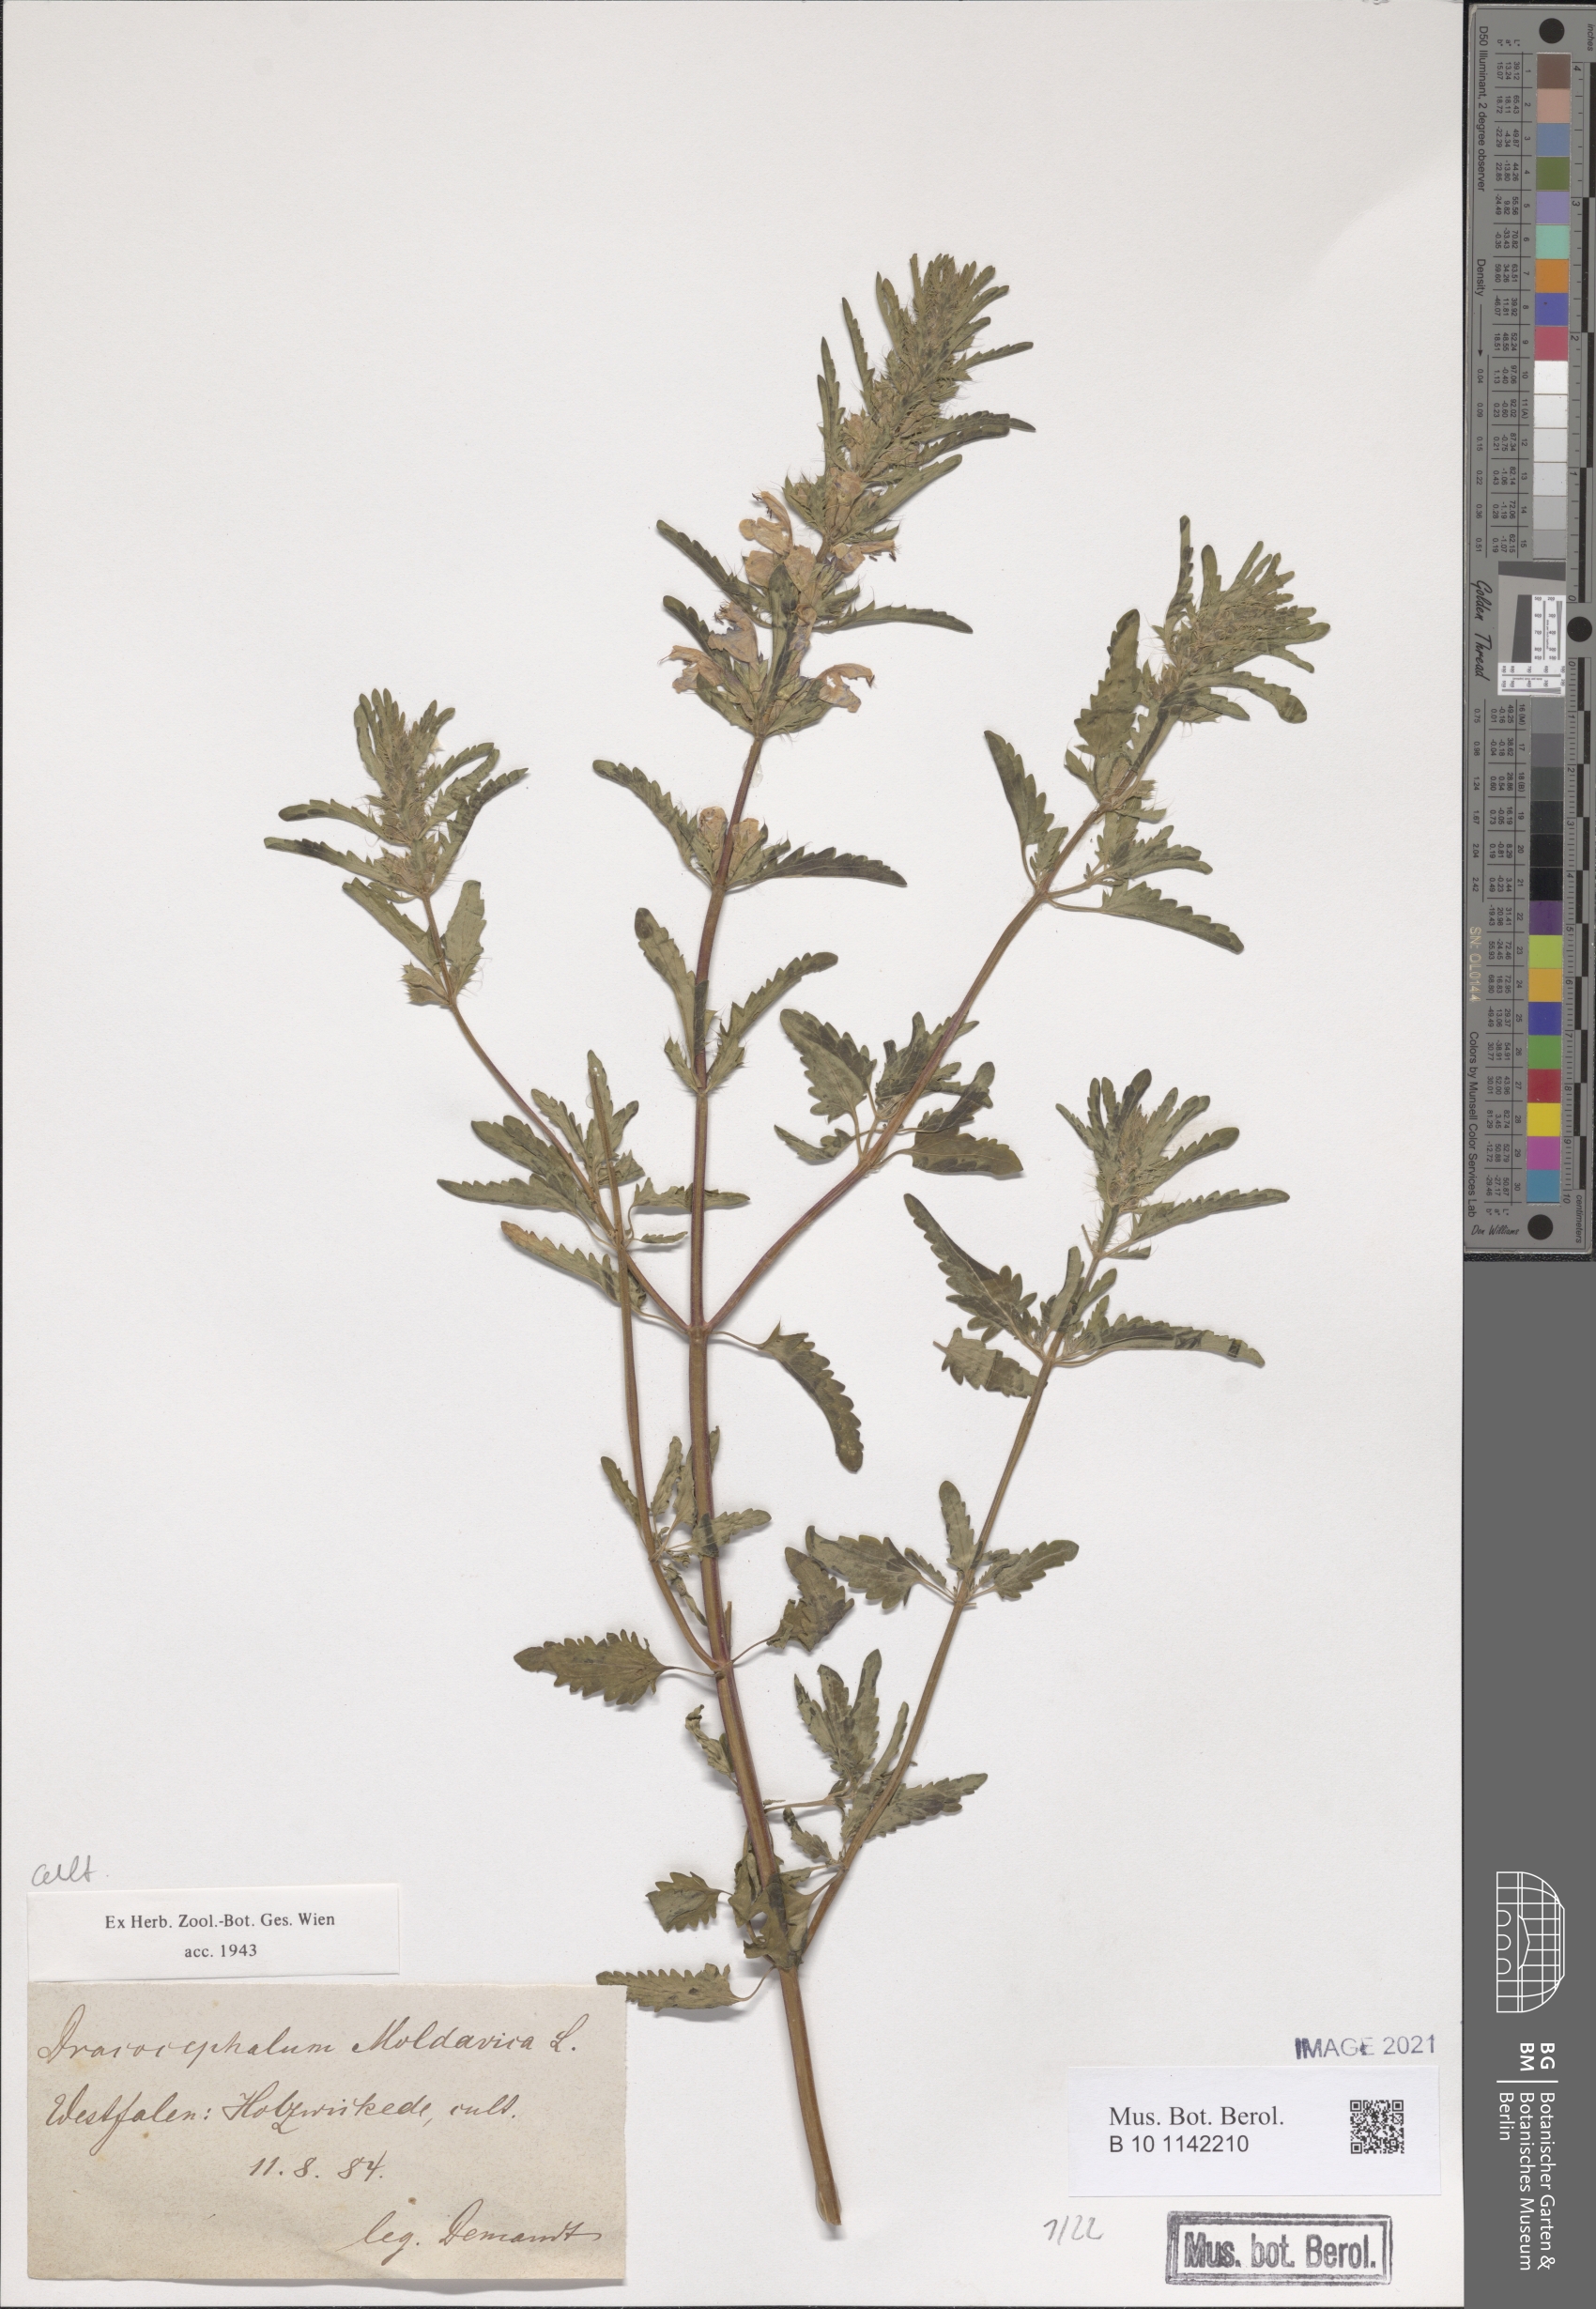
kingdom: Plantae
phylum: Tracheophyta
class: Magnoliopsida
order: Lamiales
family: Lamiaceae
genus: Dracocephalum
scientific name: Dracocephalum moldavica
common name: Moldavian dragonhead
